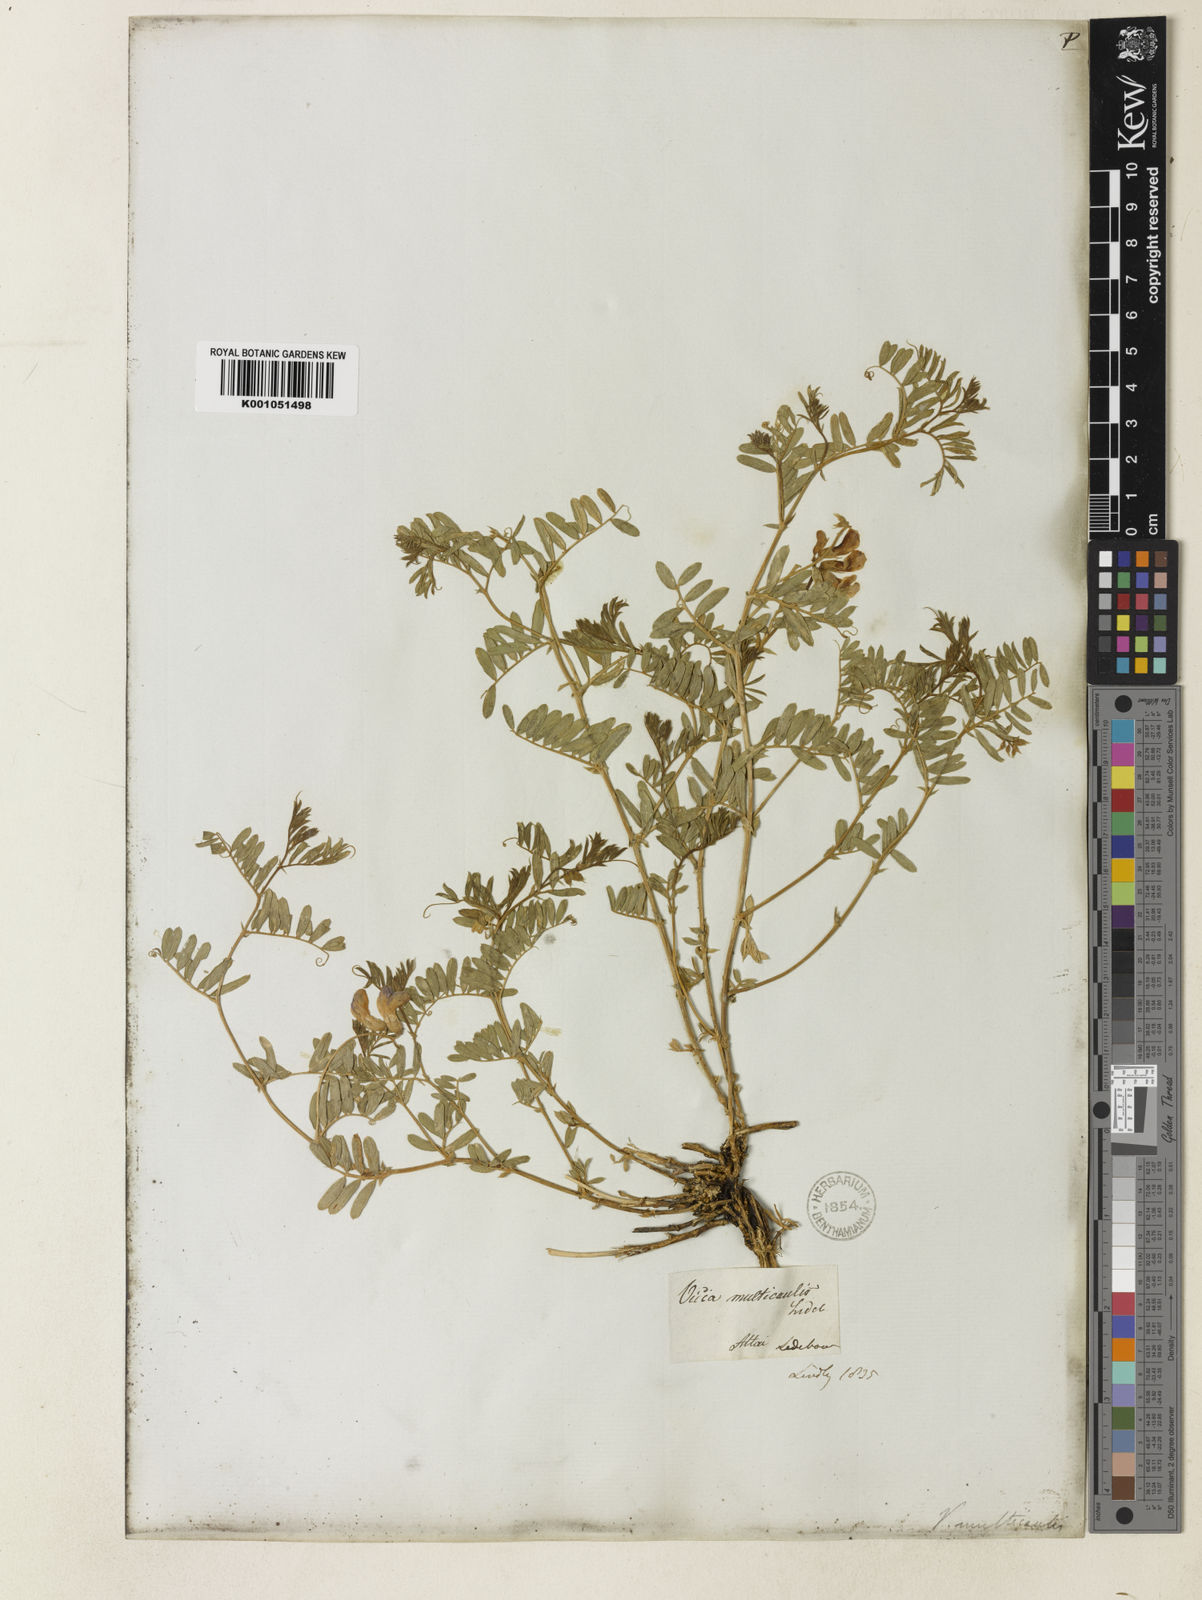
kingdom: Plantae
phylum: Tracheophyta
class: Magnoliopsida
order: Fabales
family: Fabaceae
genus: Vicia
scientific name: Vicia multicaulis
